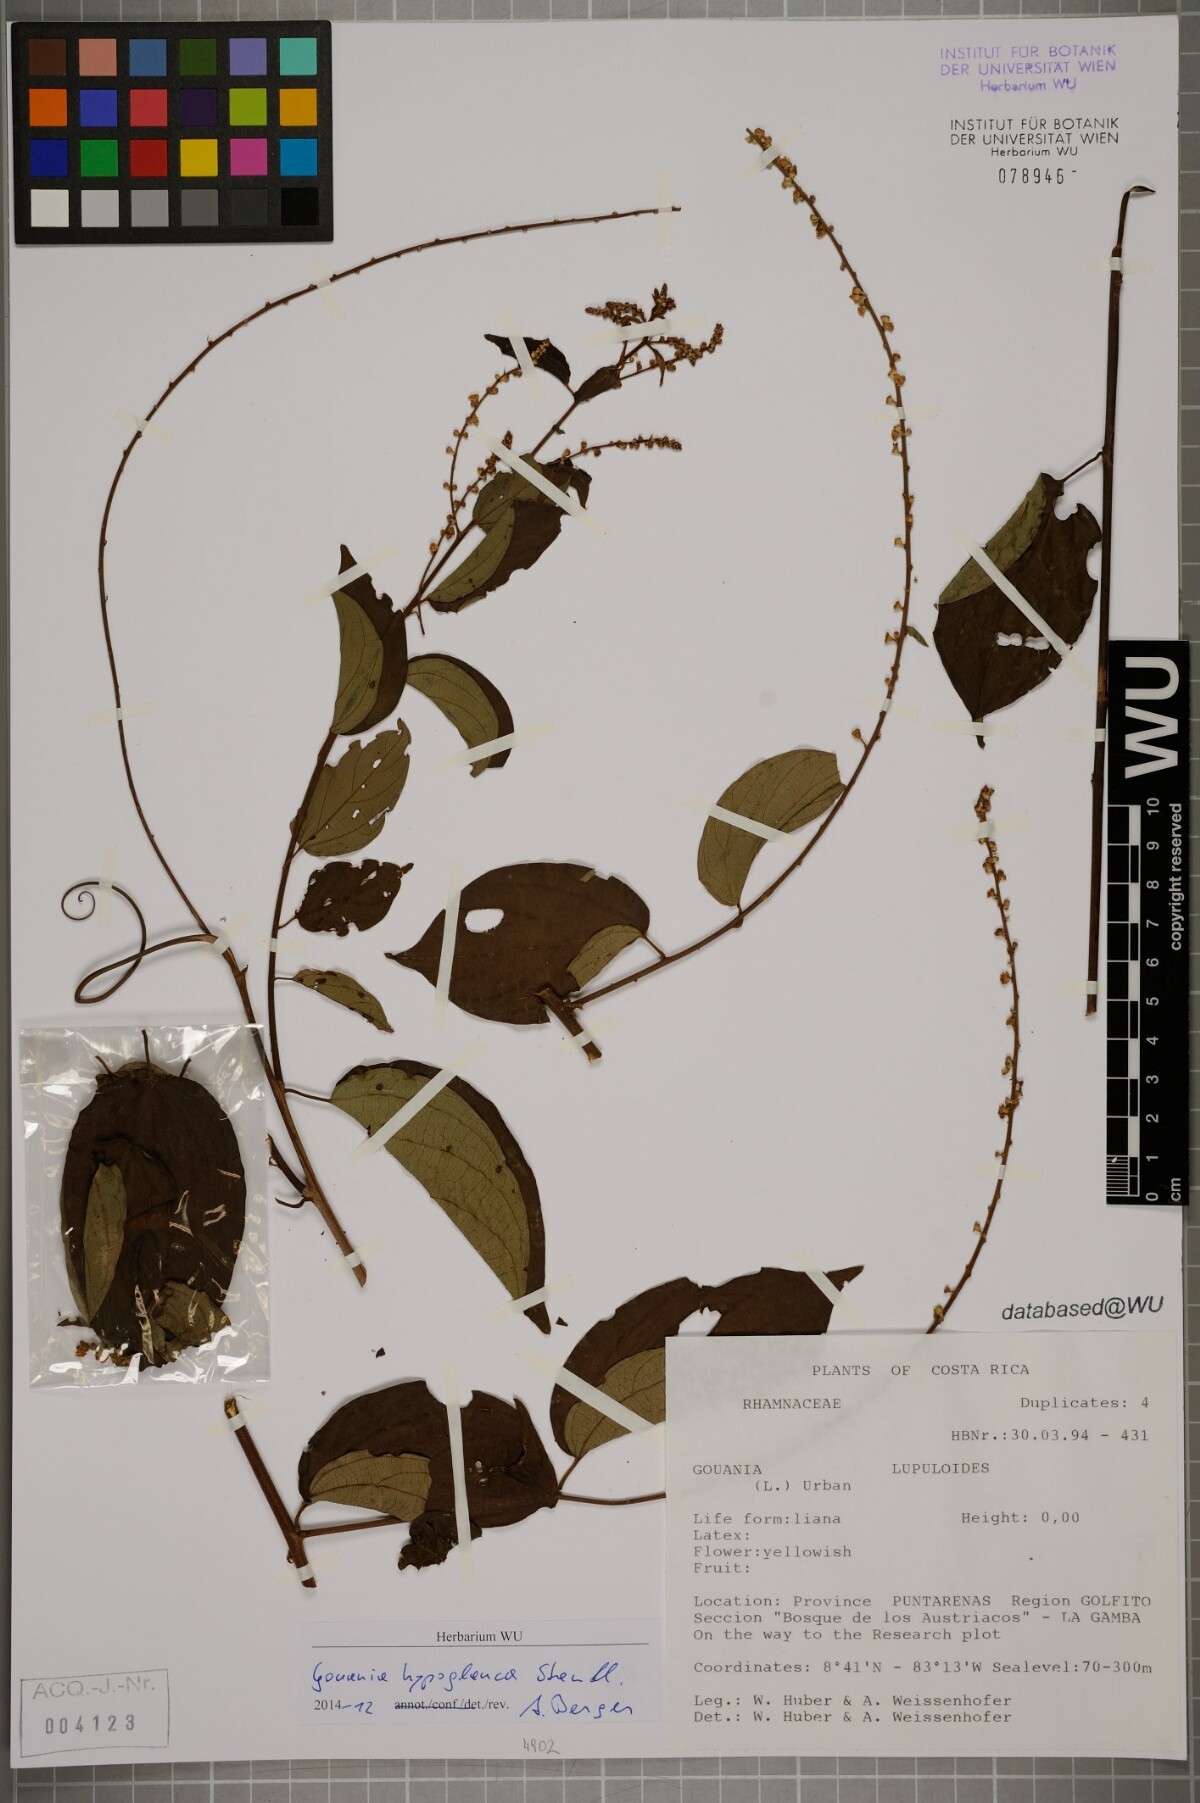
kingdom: Plantae
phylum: Tracheophyta
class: Magnoliopsida
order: Rosales
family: Rhamnaceae
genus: Gouania
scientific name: Gouania hypoglauca
